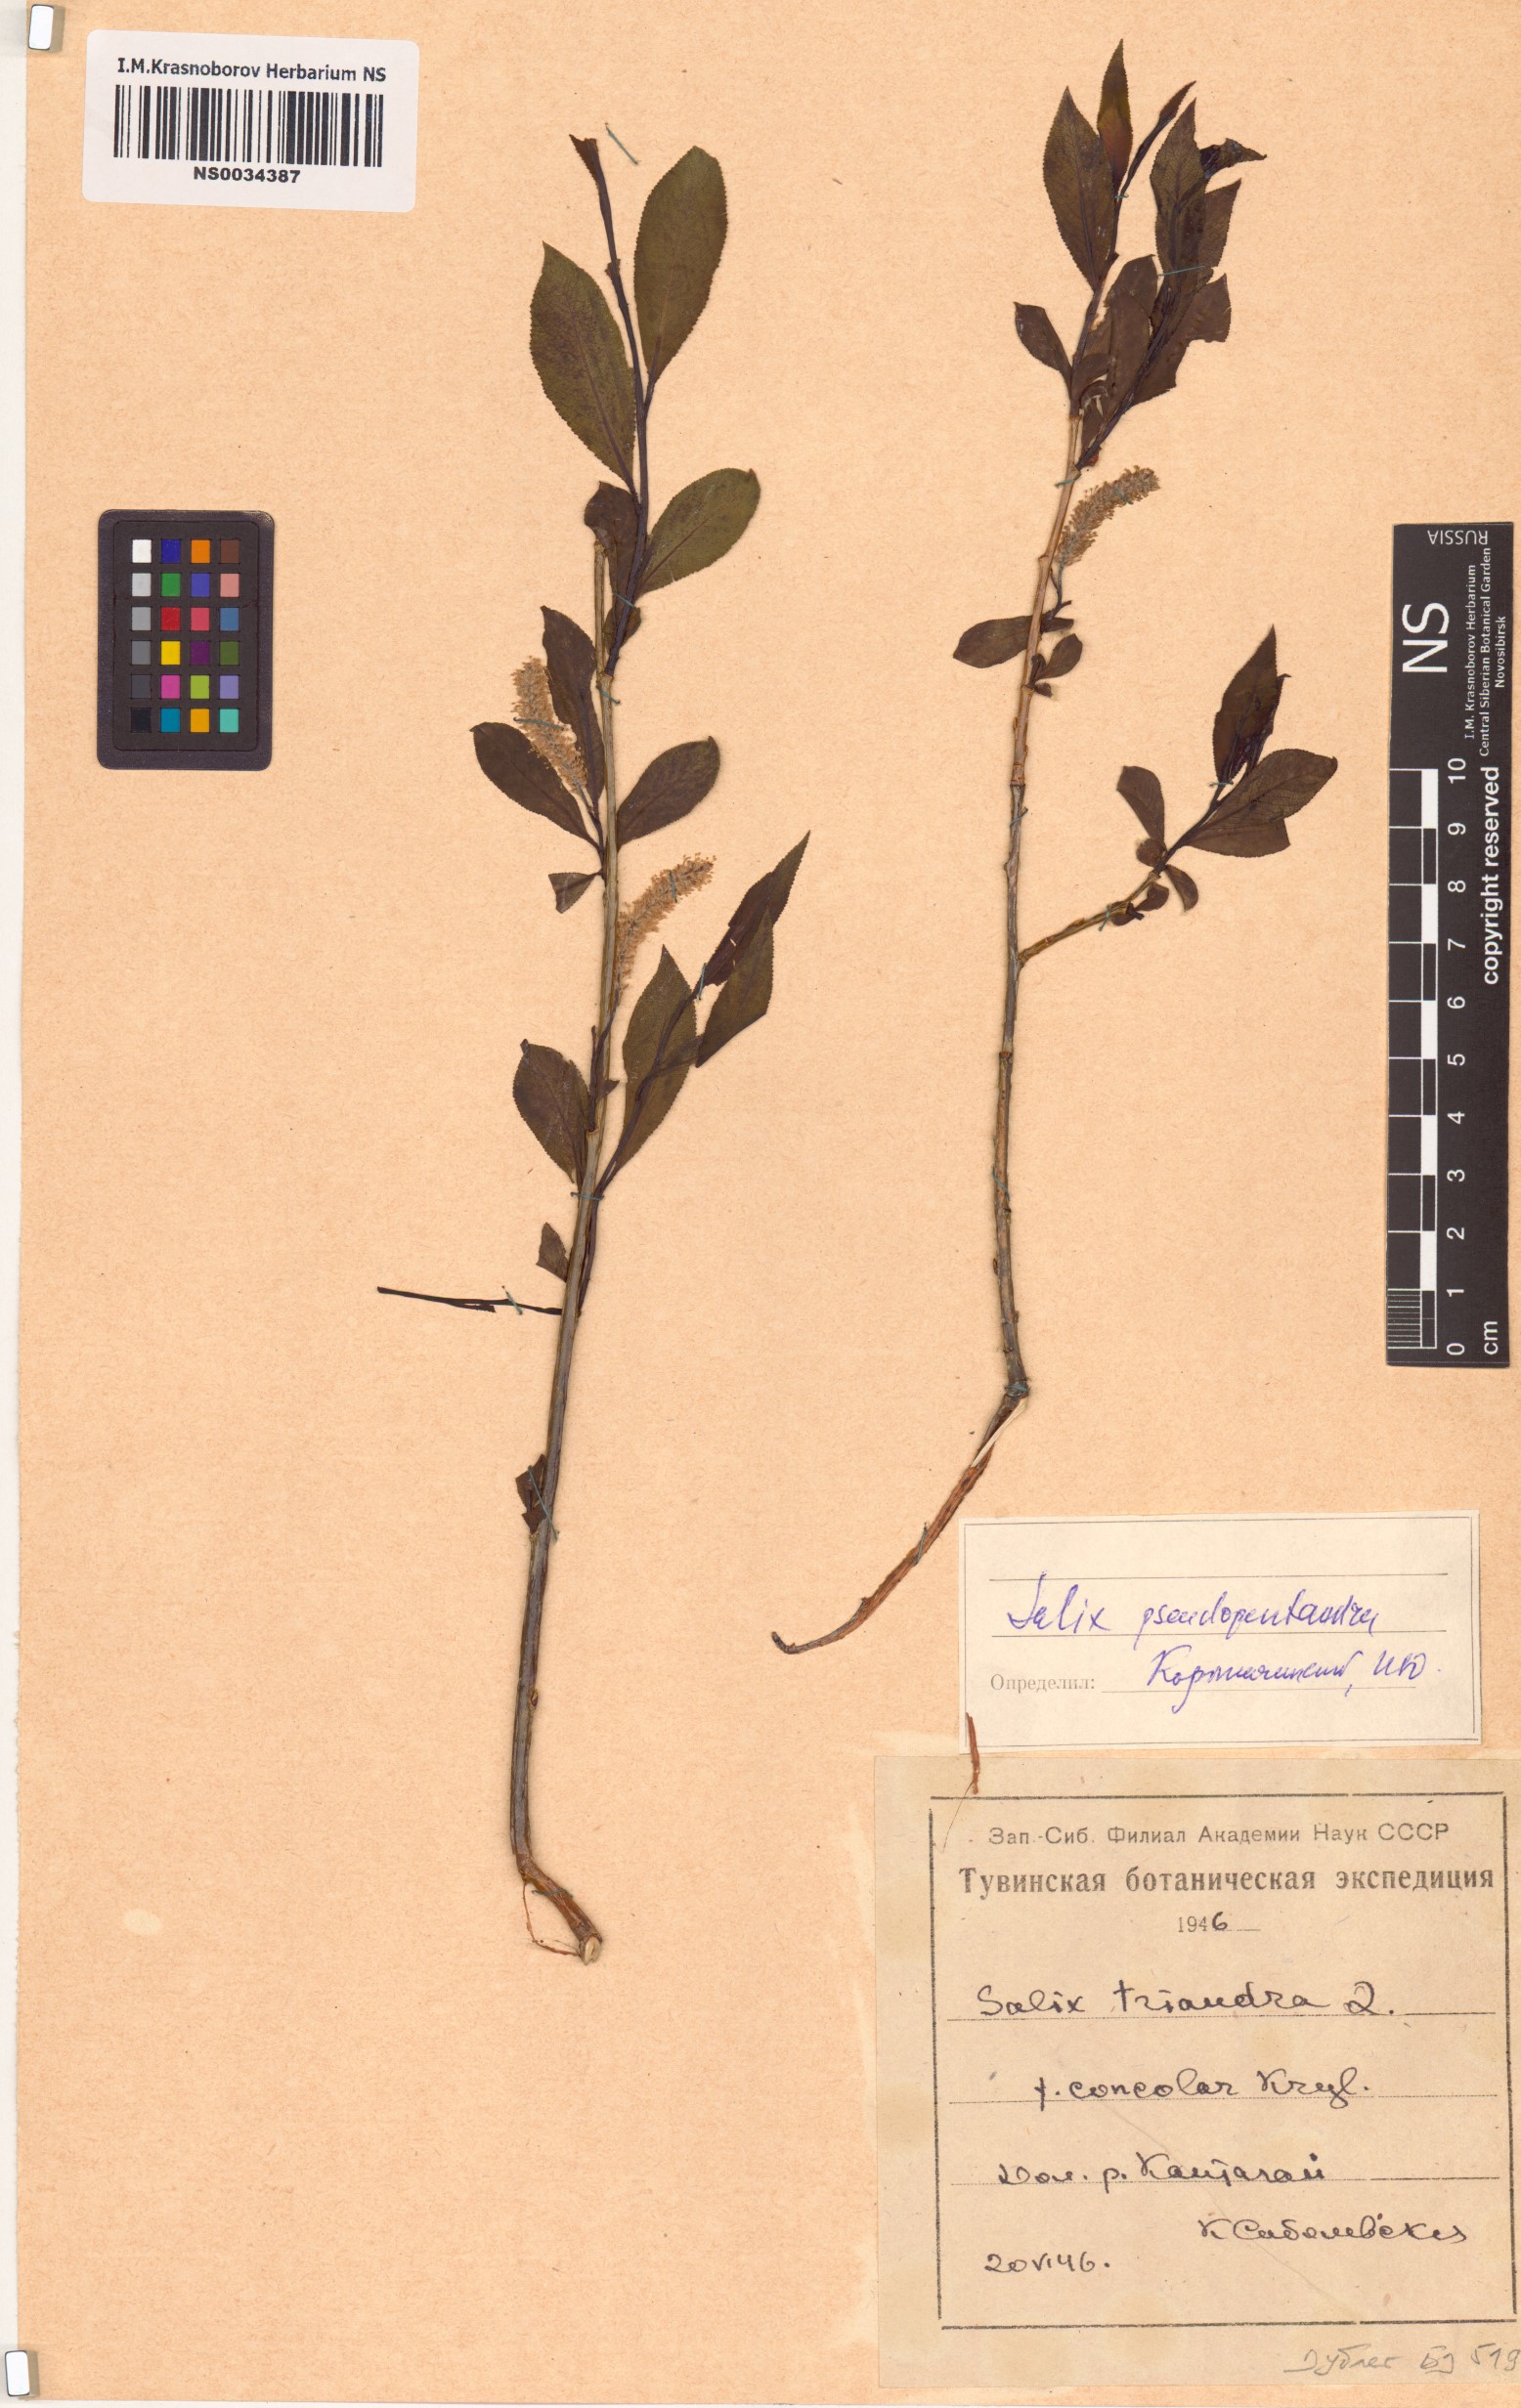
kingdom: Plantae
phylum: Tracheophyta
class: Magnoliopsida
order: Malpighiales
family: Salicaceae
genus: Salix
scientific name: Salix pseudopentandra
